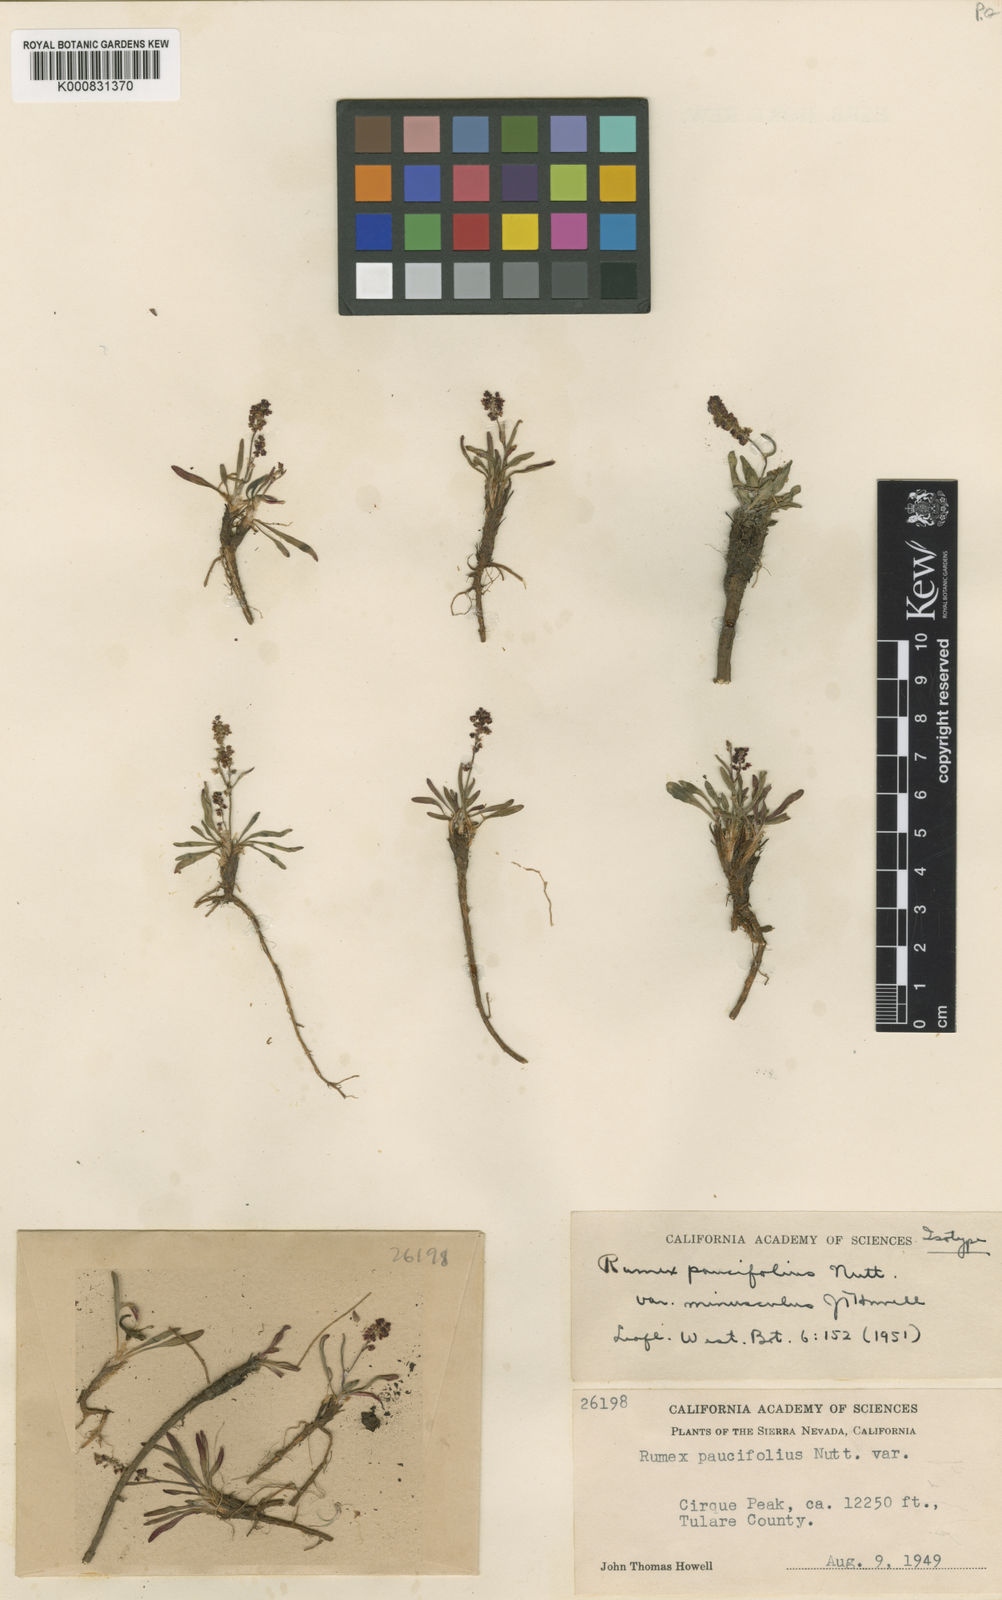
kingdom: Plantae
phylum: Tracheophyta
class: Magnoliopsida
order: Caryophyllales
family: Polygonaceae
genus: Rumex
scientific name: Rumex paucifolius
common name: Alpine sheep sorrel
